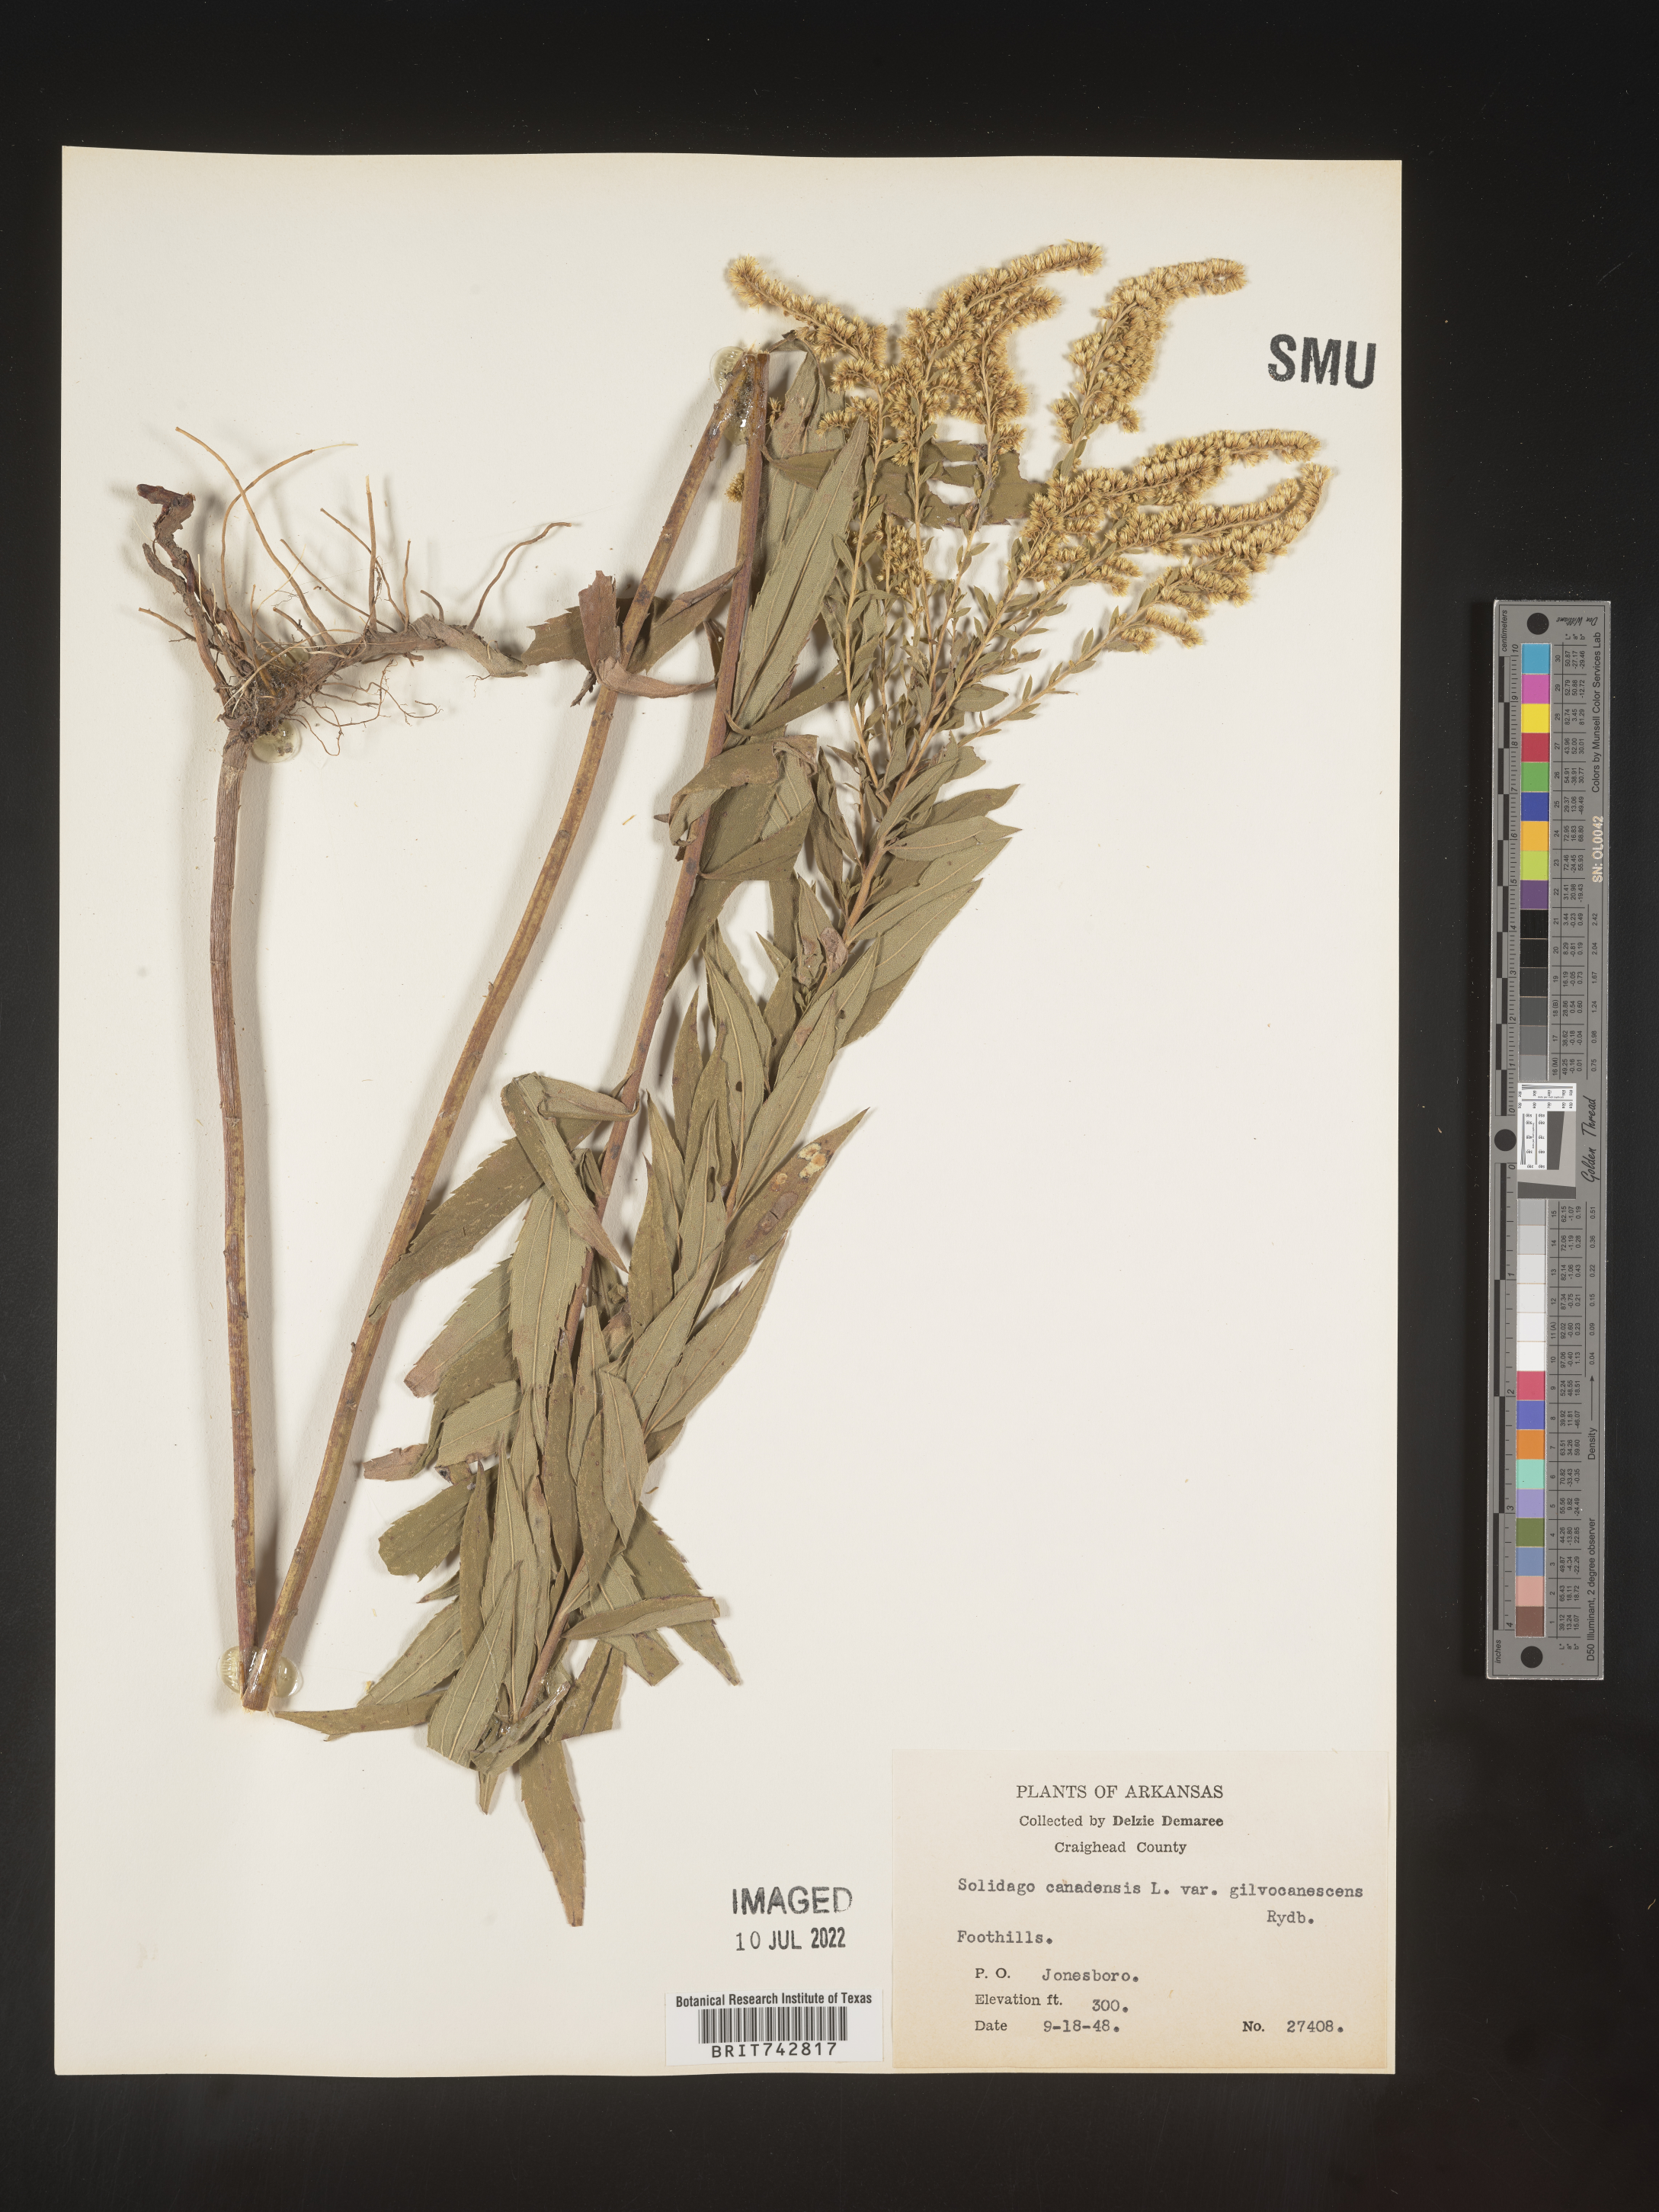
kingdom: Plantae
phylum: Tracheophyta
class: Magnoliopsida
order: Asterales
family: Asteraceae
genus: Solidago
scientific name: Solidago altissima
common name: Late goldenrod
